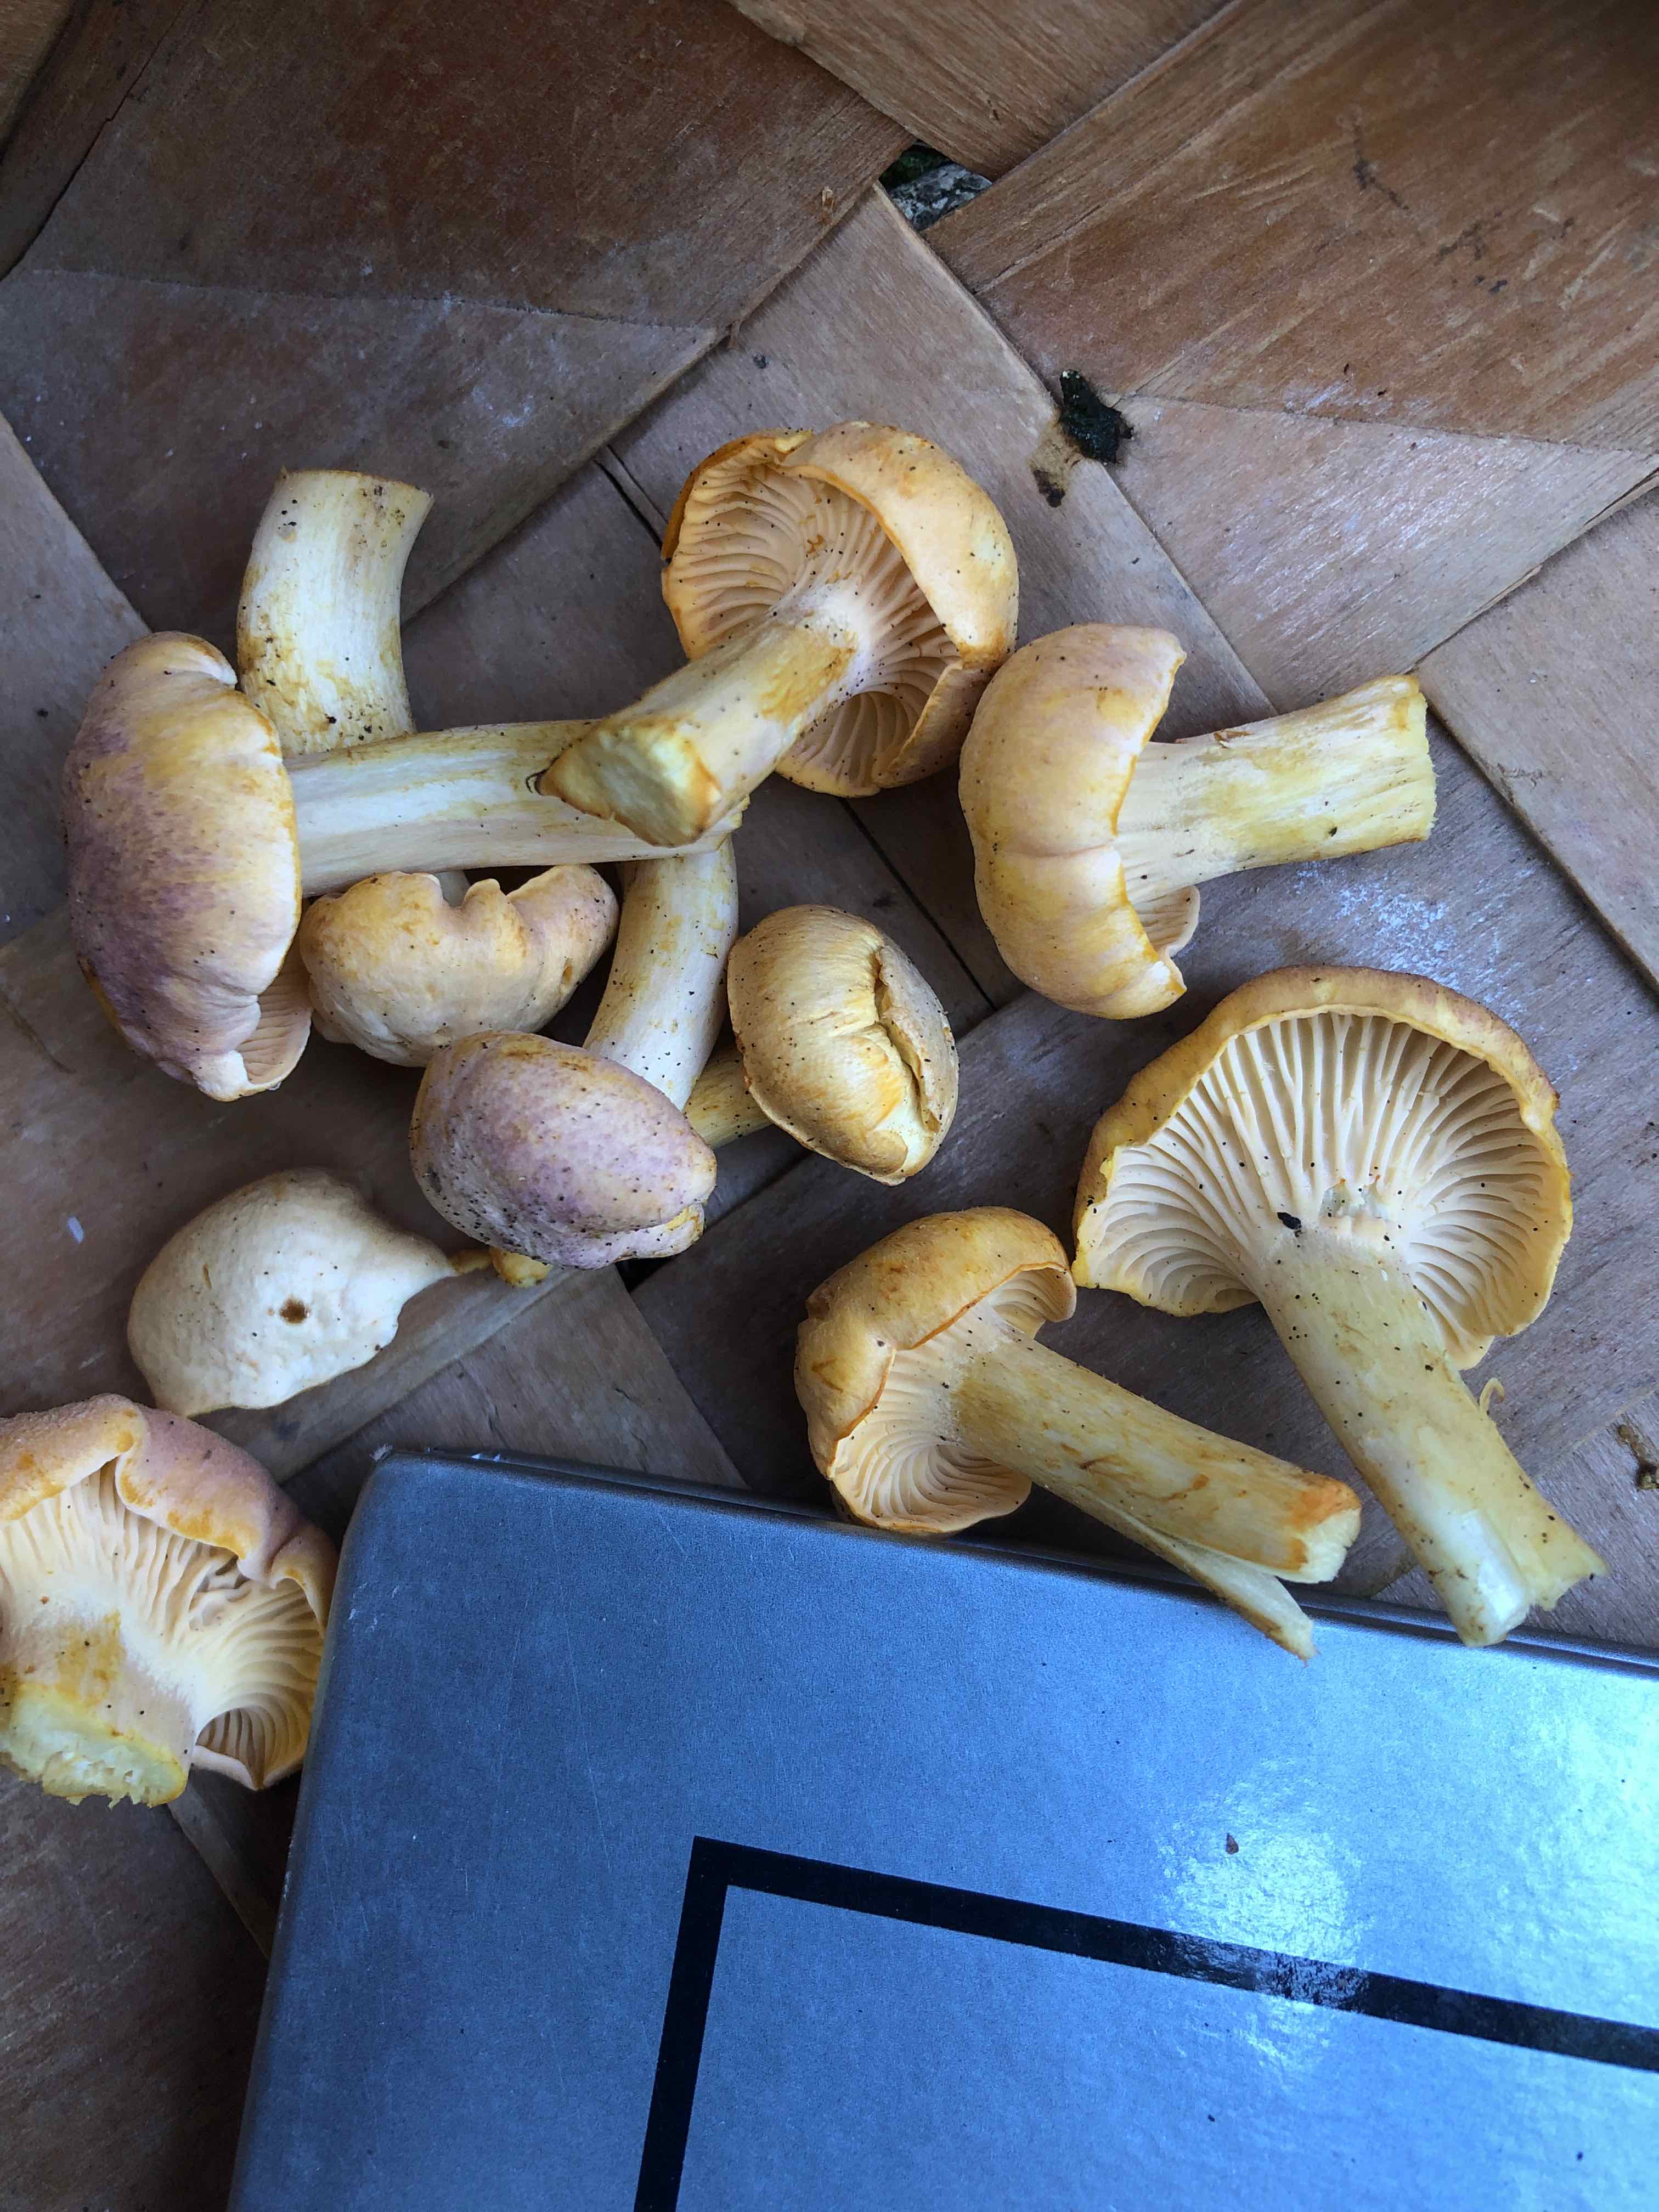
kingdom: Fungi
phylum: Basidiomycota
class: Agaricomycetes
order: Cantharellales
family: Hydnaceae
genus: Cantharellus
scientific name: Cantharellus amethysteus
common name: ametyst-kantarel
